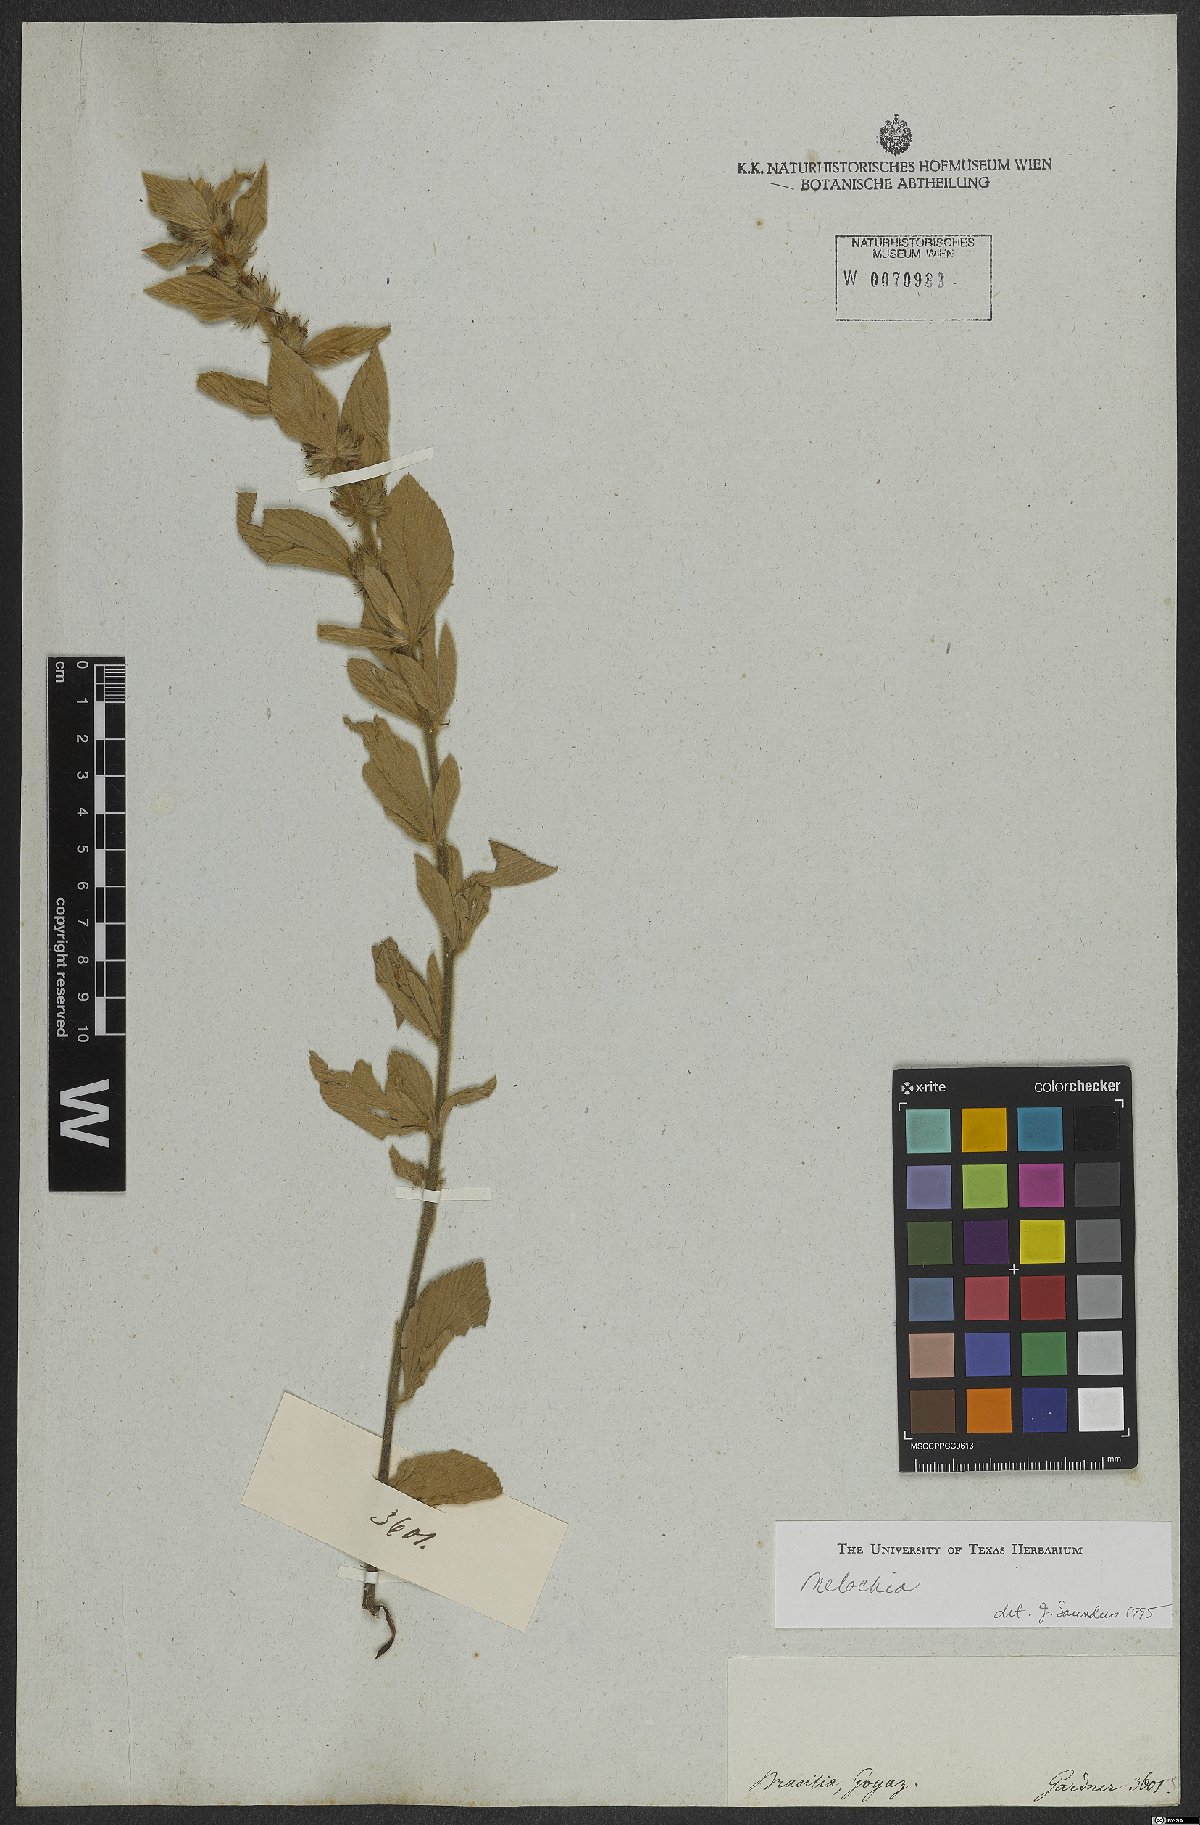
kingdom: Plantae
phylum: Tracheophyta
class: Magnoliopsida
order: Malvales
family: Malvaceae
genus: Melochia
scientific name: Melochia
